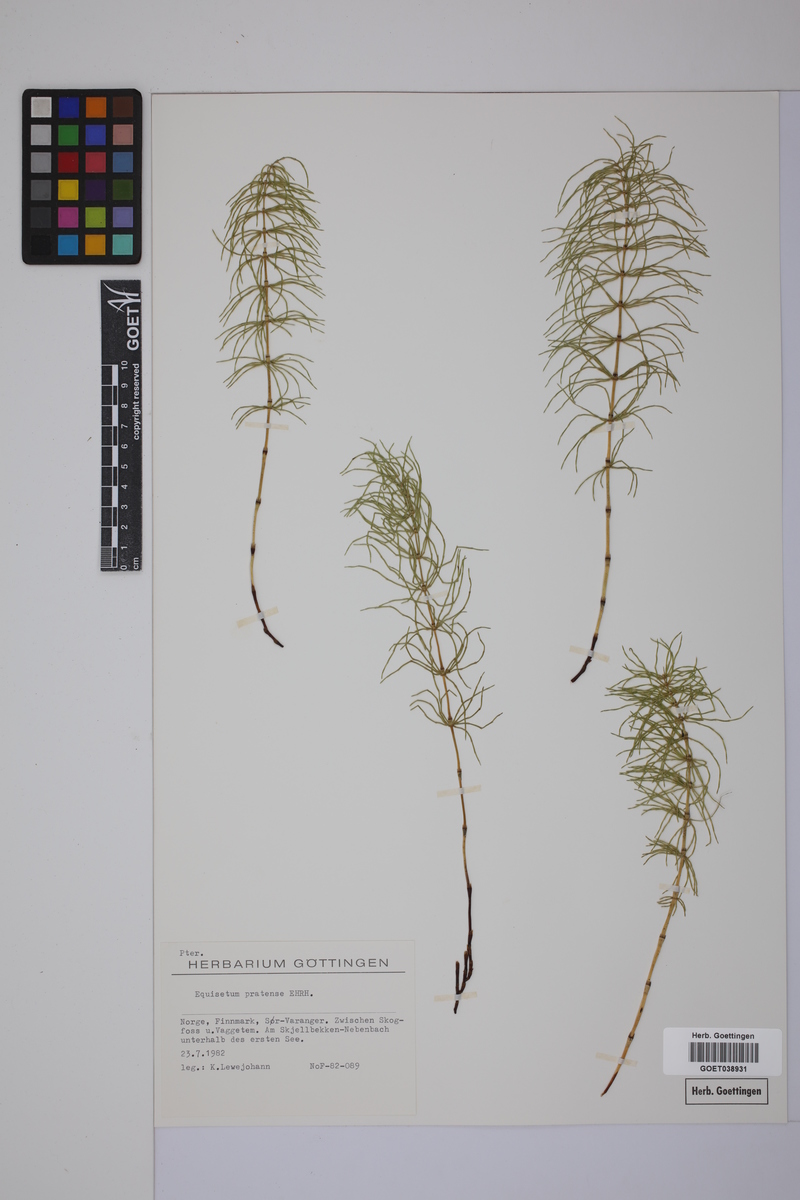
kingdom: Plantae
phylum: Tracheophyta
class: Polypodiopsida
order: Equisetales
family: Equisetaceae
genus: Equisetum
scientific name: Equisetum pratense
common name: Meadow horsetail
